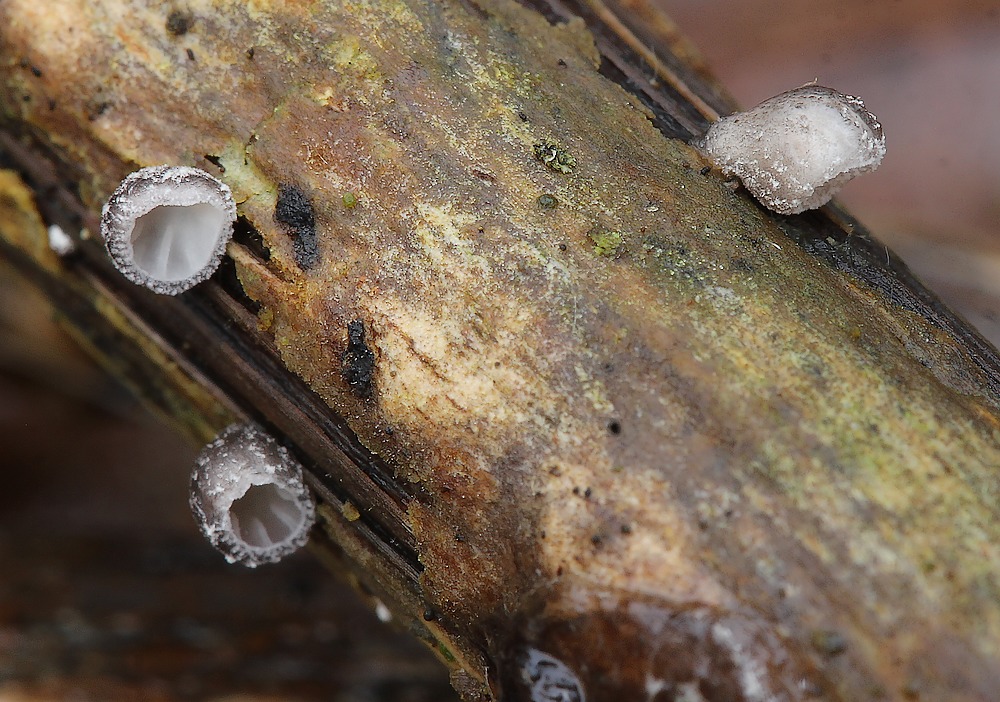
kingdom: Fungi
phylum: Basidiomycota
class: Agaricomycetes
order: Agaricales
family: Pleurotaceae
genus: Hohenbuehelia
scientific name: Hohenbuehelia cyphelliformis
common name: urte-filthat
